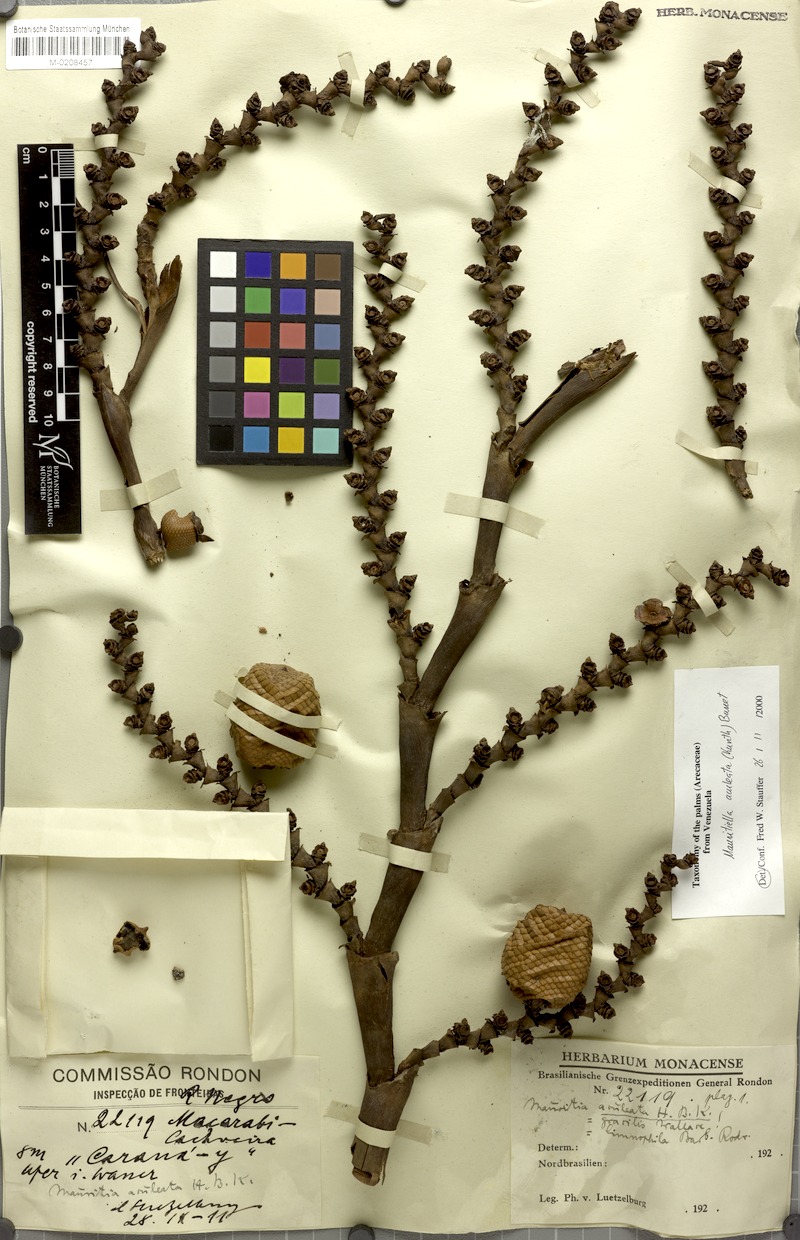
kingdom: Plantae
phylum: Tracheophyta
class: Liliopsida
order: Arecales
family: Arecaceae
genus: Mauritiella
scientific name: Mauritiella aculeata
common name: Buritirana
